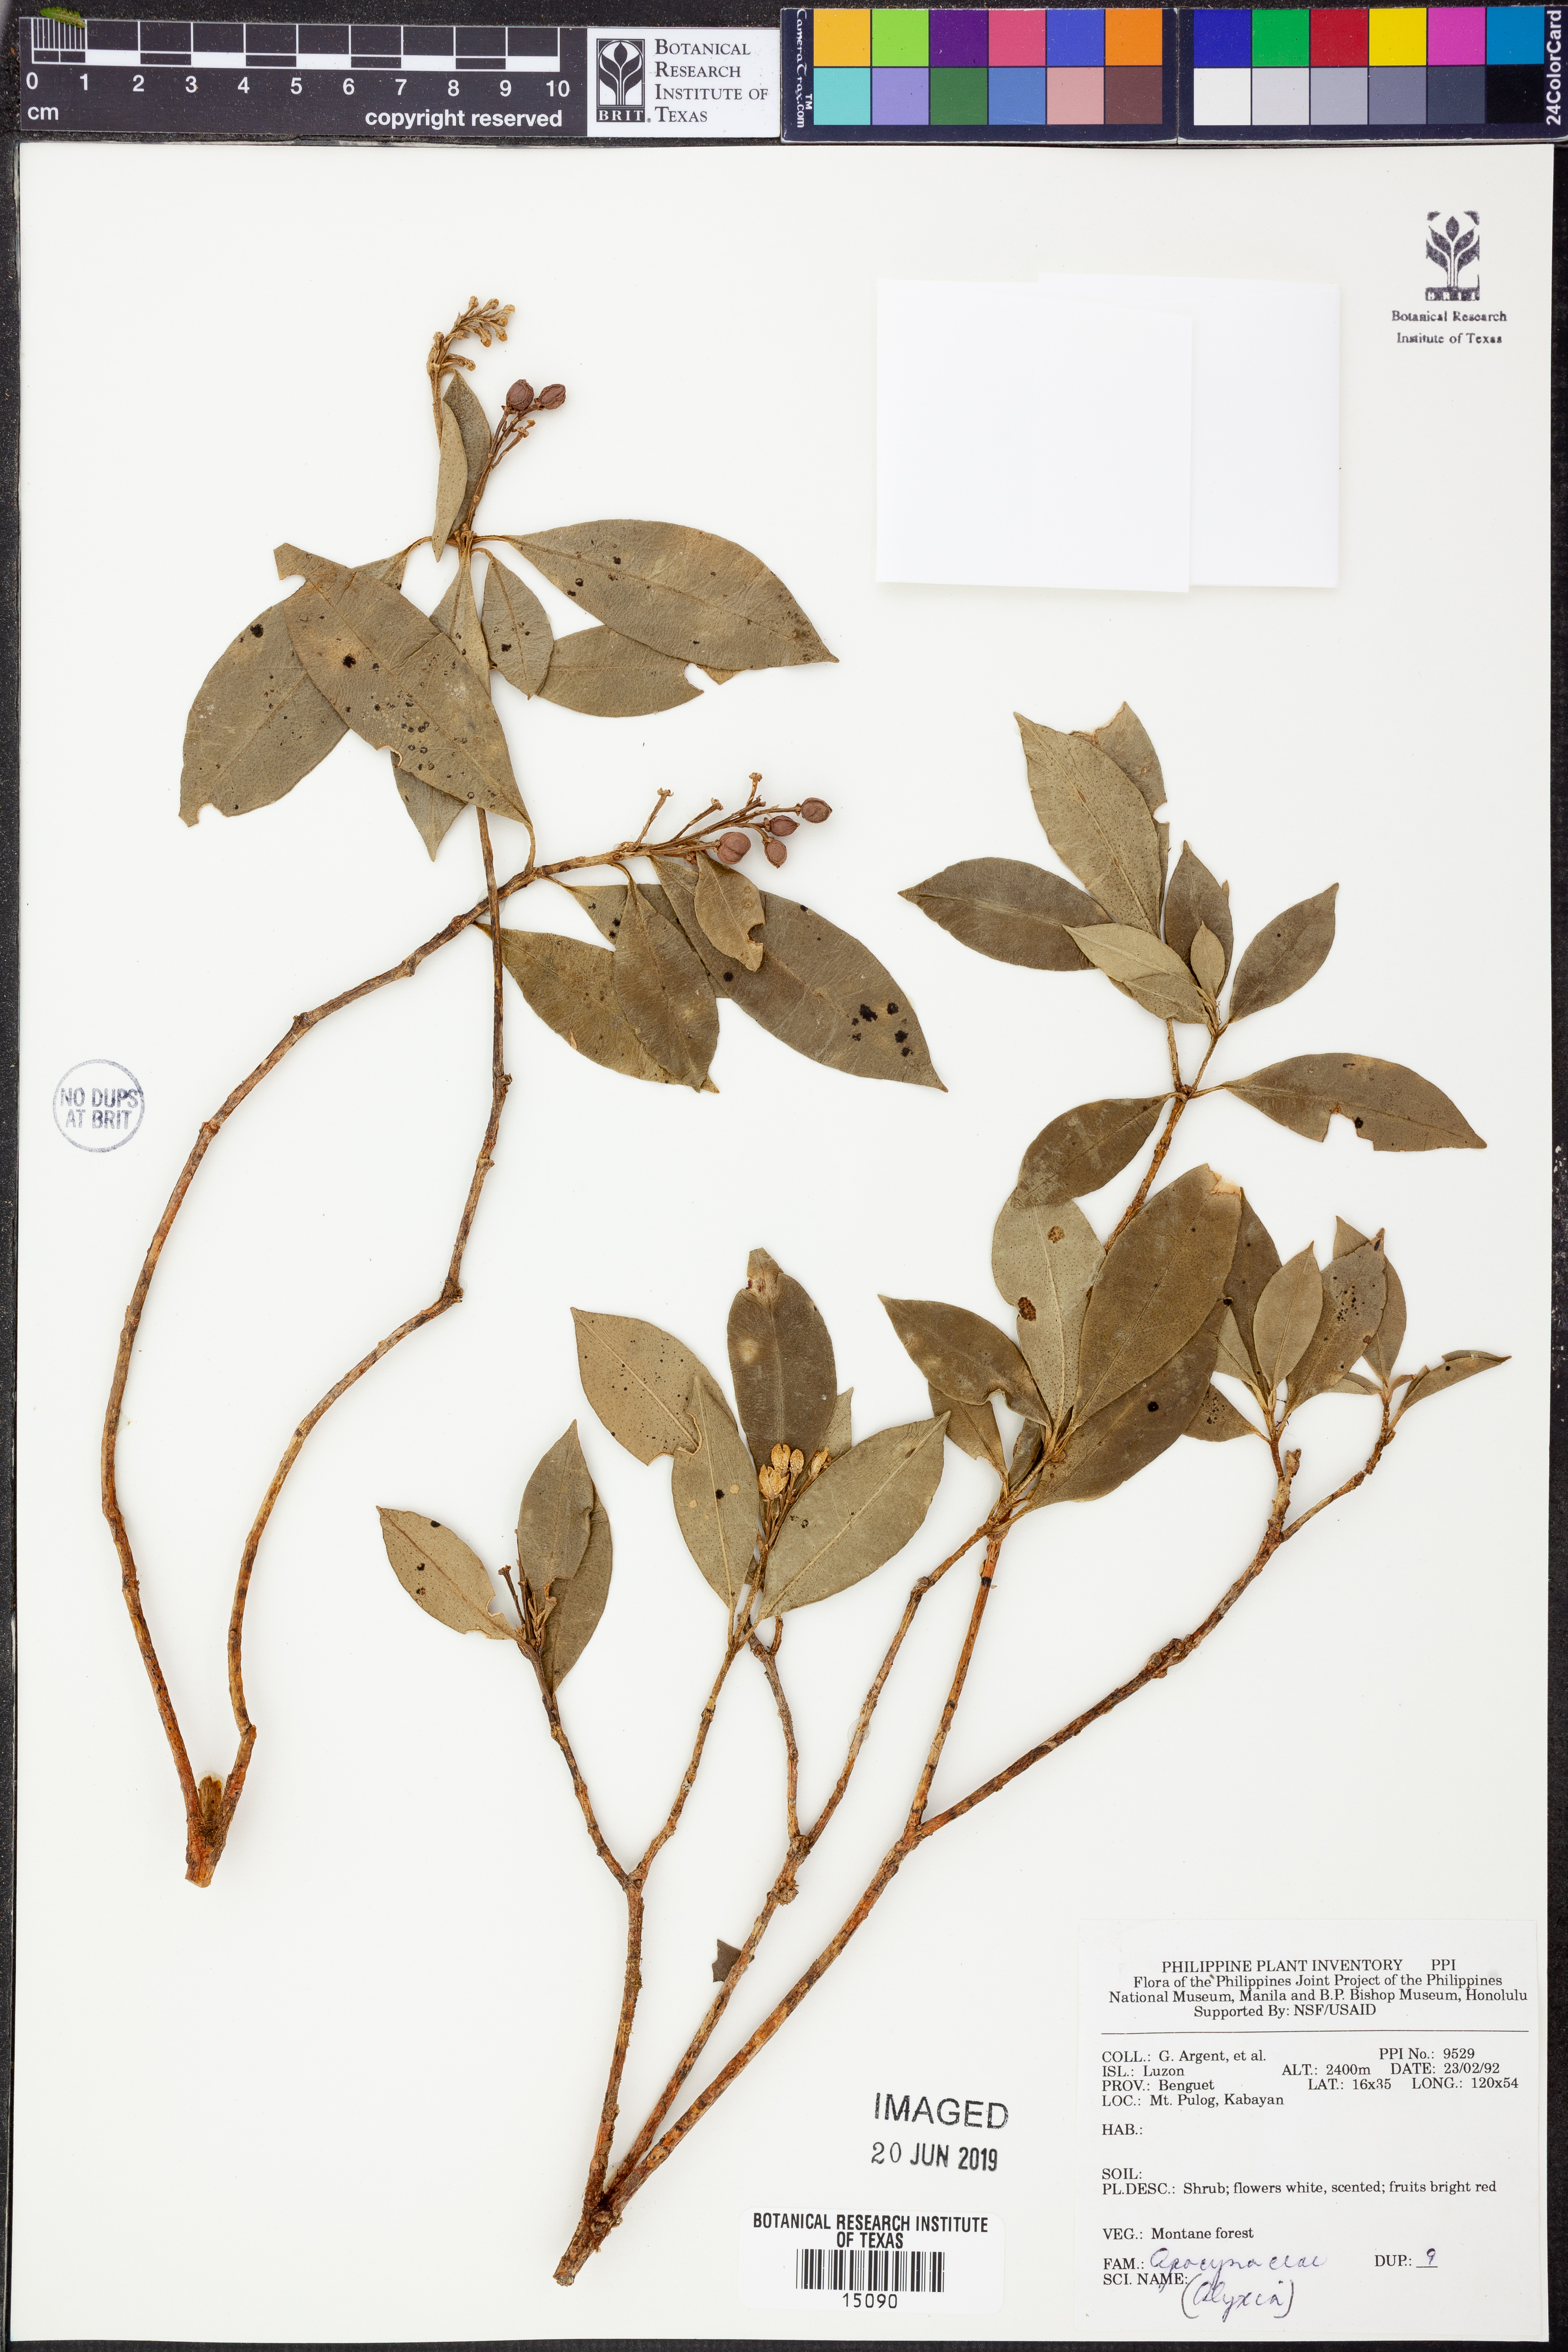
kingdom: Plantae
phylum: Tracheophyta
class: Magnoliopsida
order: Gentianales
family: Apocynaceae
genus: Alyxia
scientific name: Alyxia
